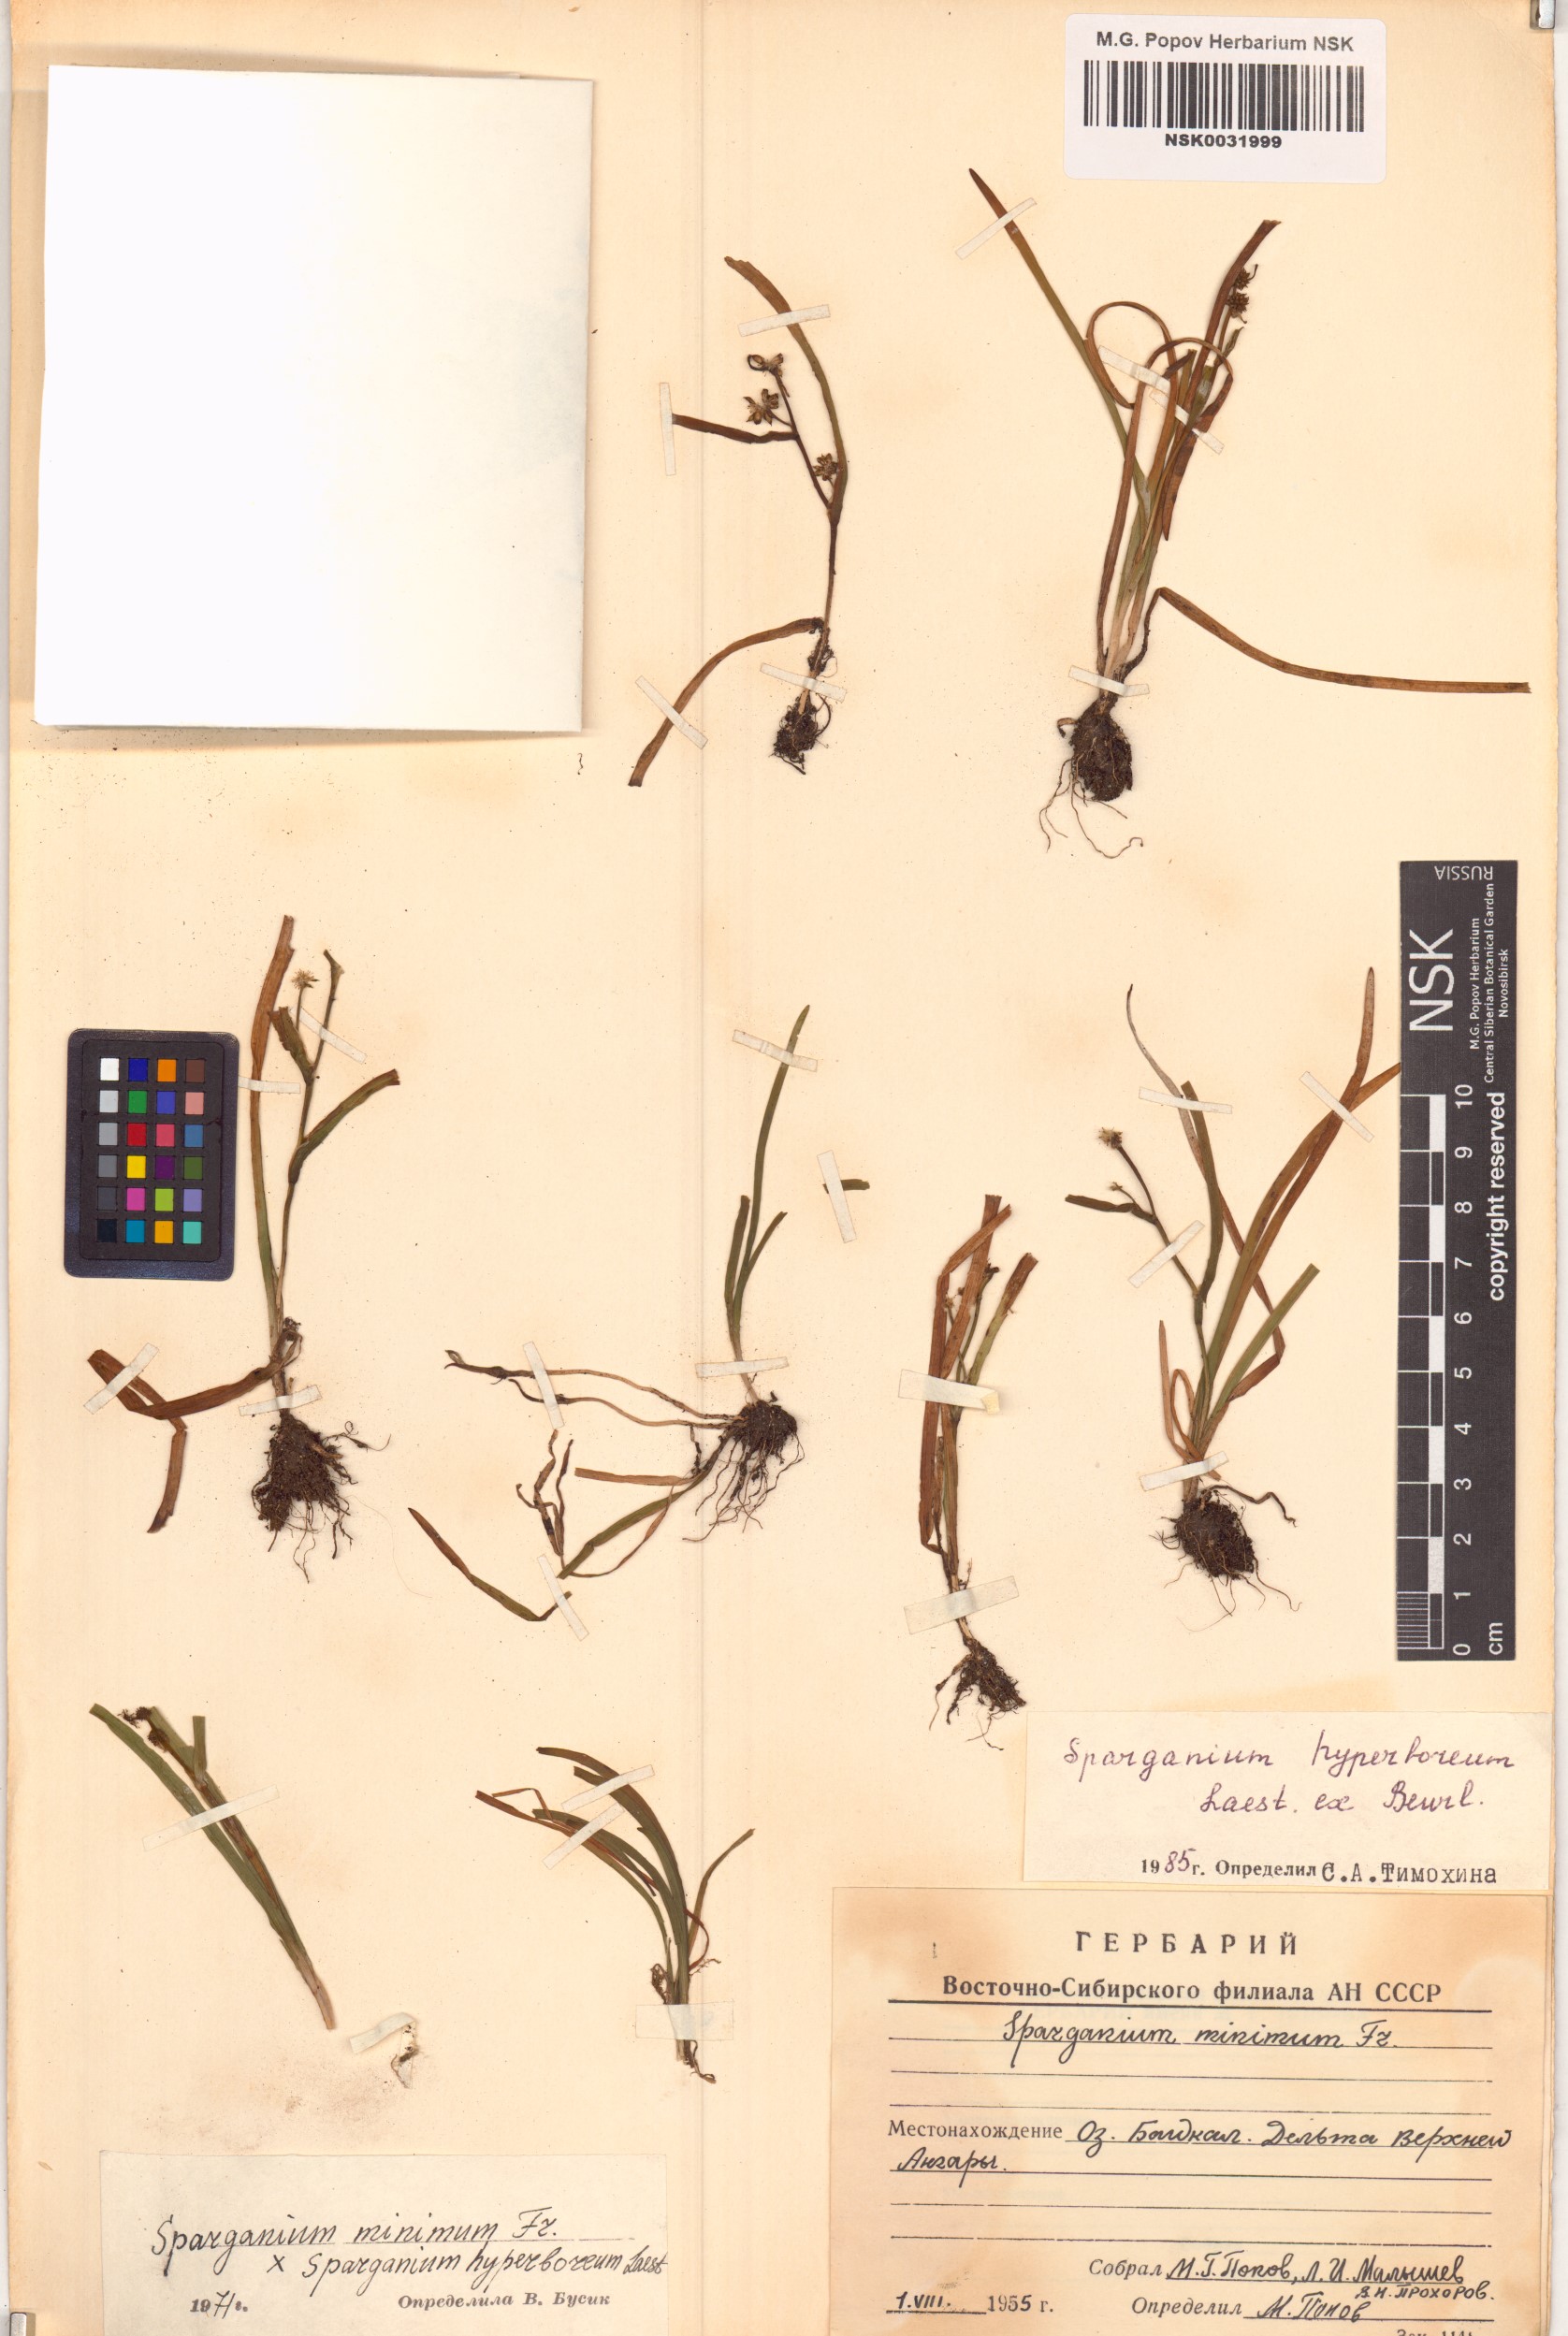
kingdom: Plantae
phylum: Tracheophyta
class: Liliopsida
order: Poales
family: Typhaceae
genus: Sparganium
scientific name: Sparganium hyperboreum
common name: Arctic burreed
